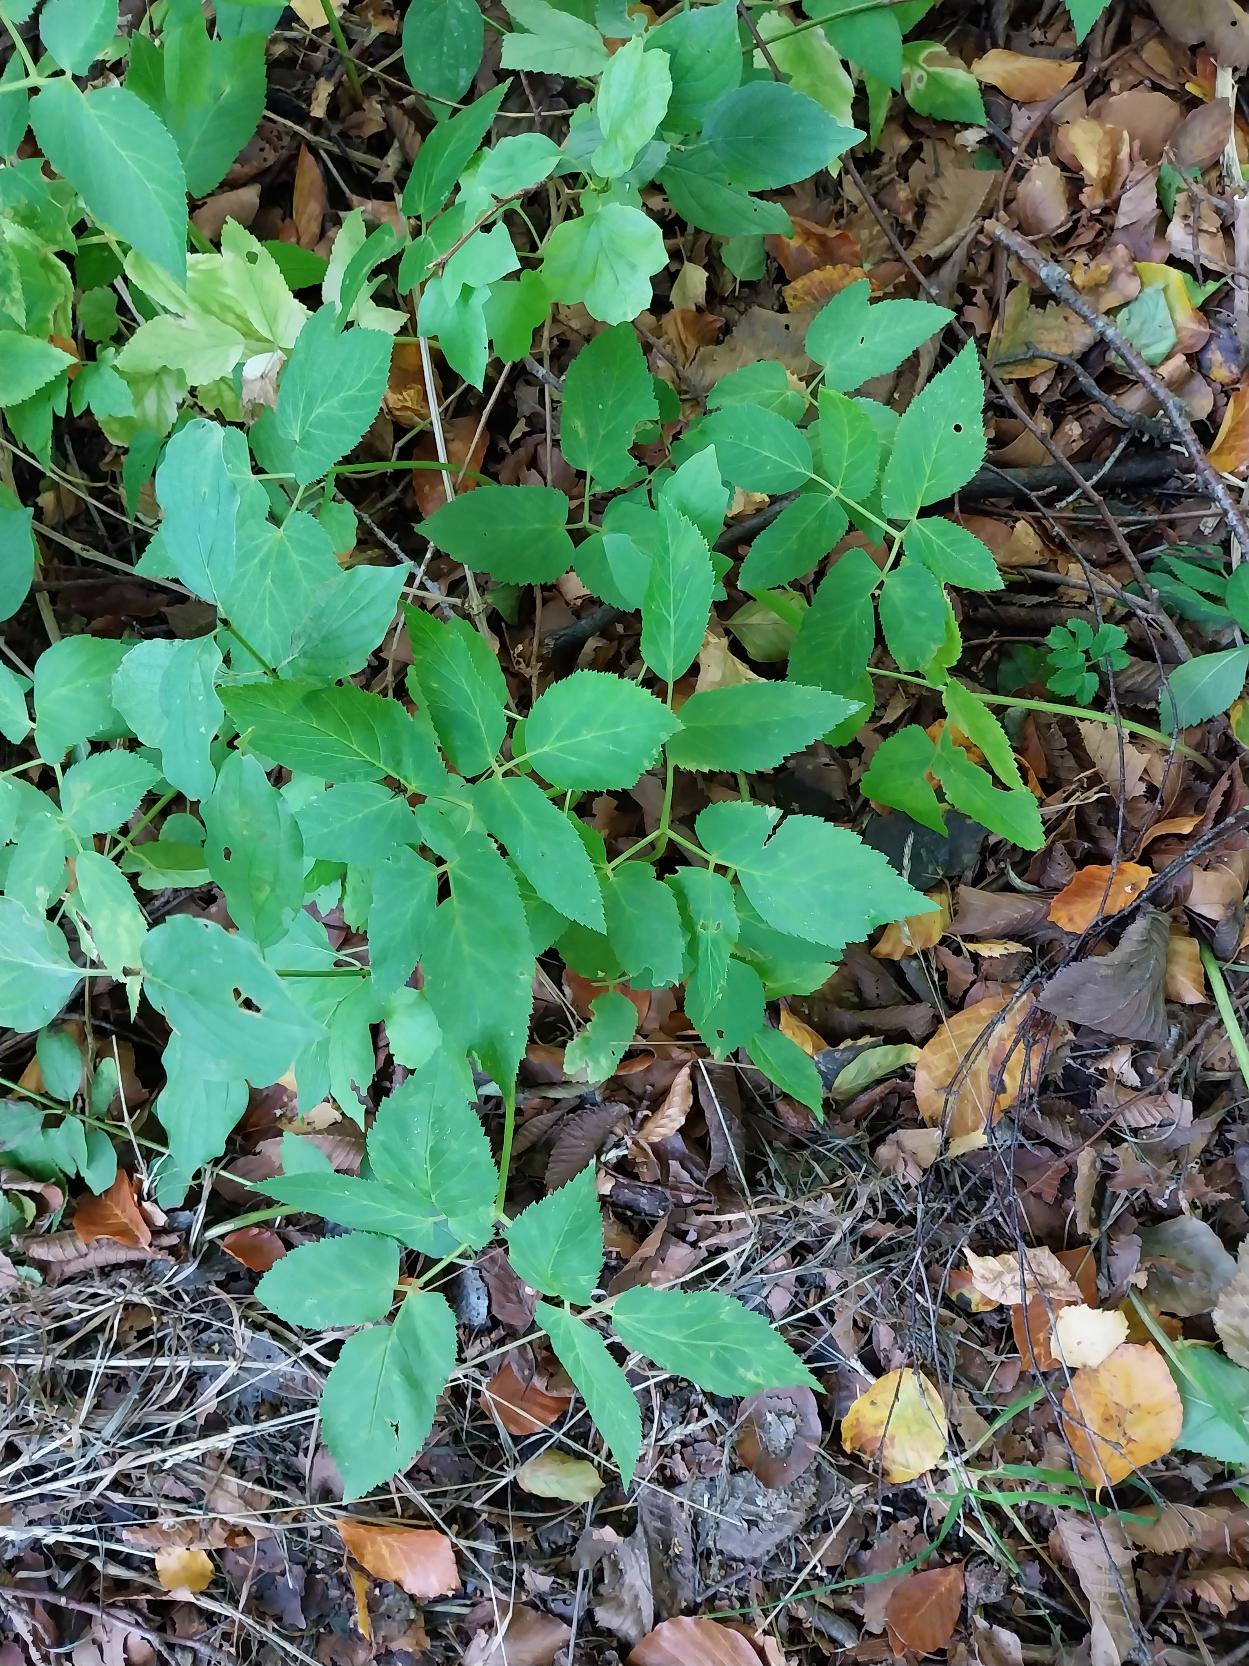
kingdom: Plantae
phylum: Tracheophyta
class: Magnoliopsida
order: Apiales
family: Apiaceae
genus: Aegopodium
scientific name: Aegopodium podagraria
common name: Skvalderkål
